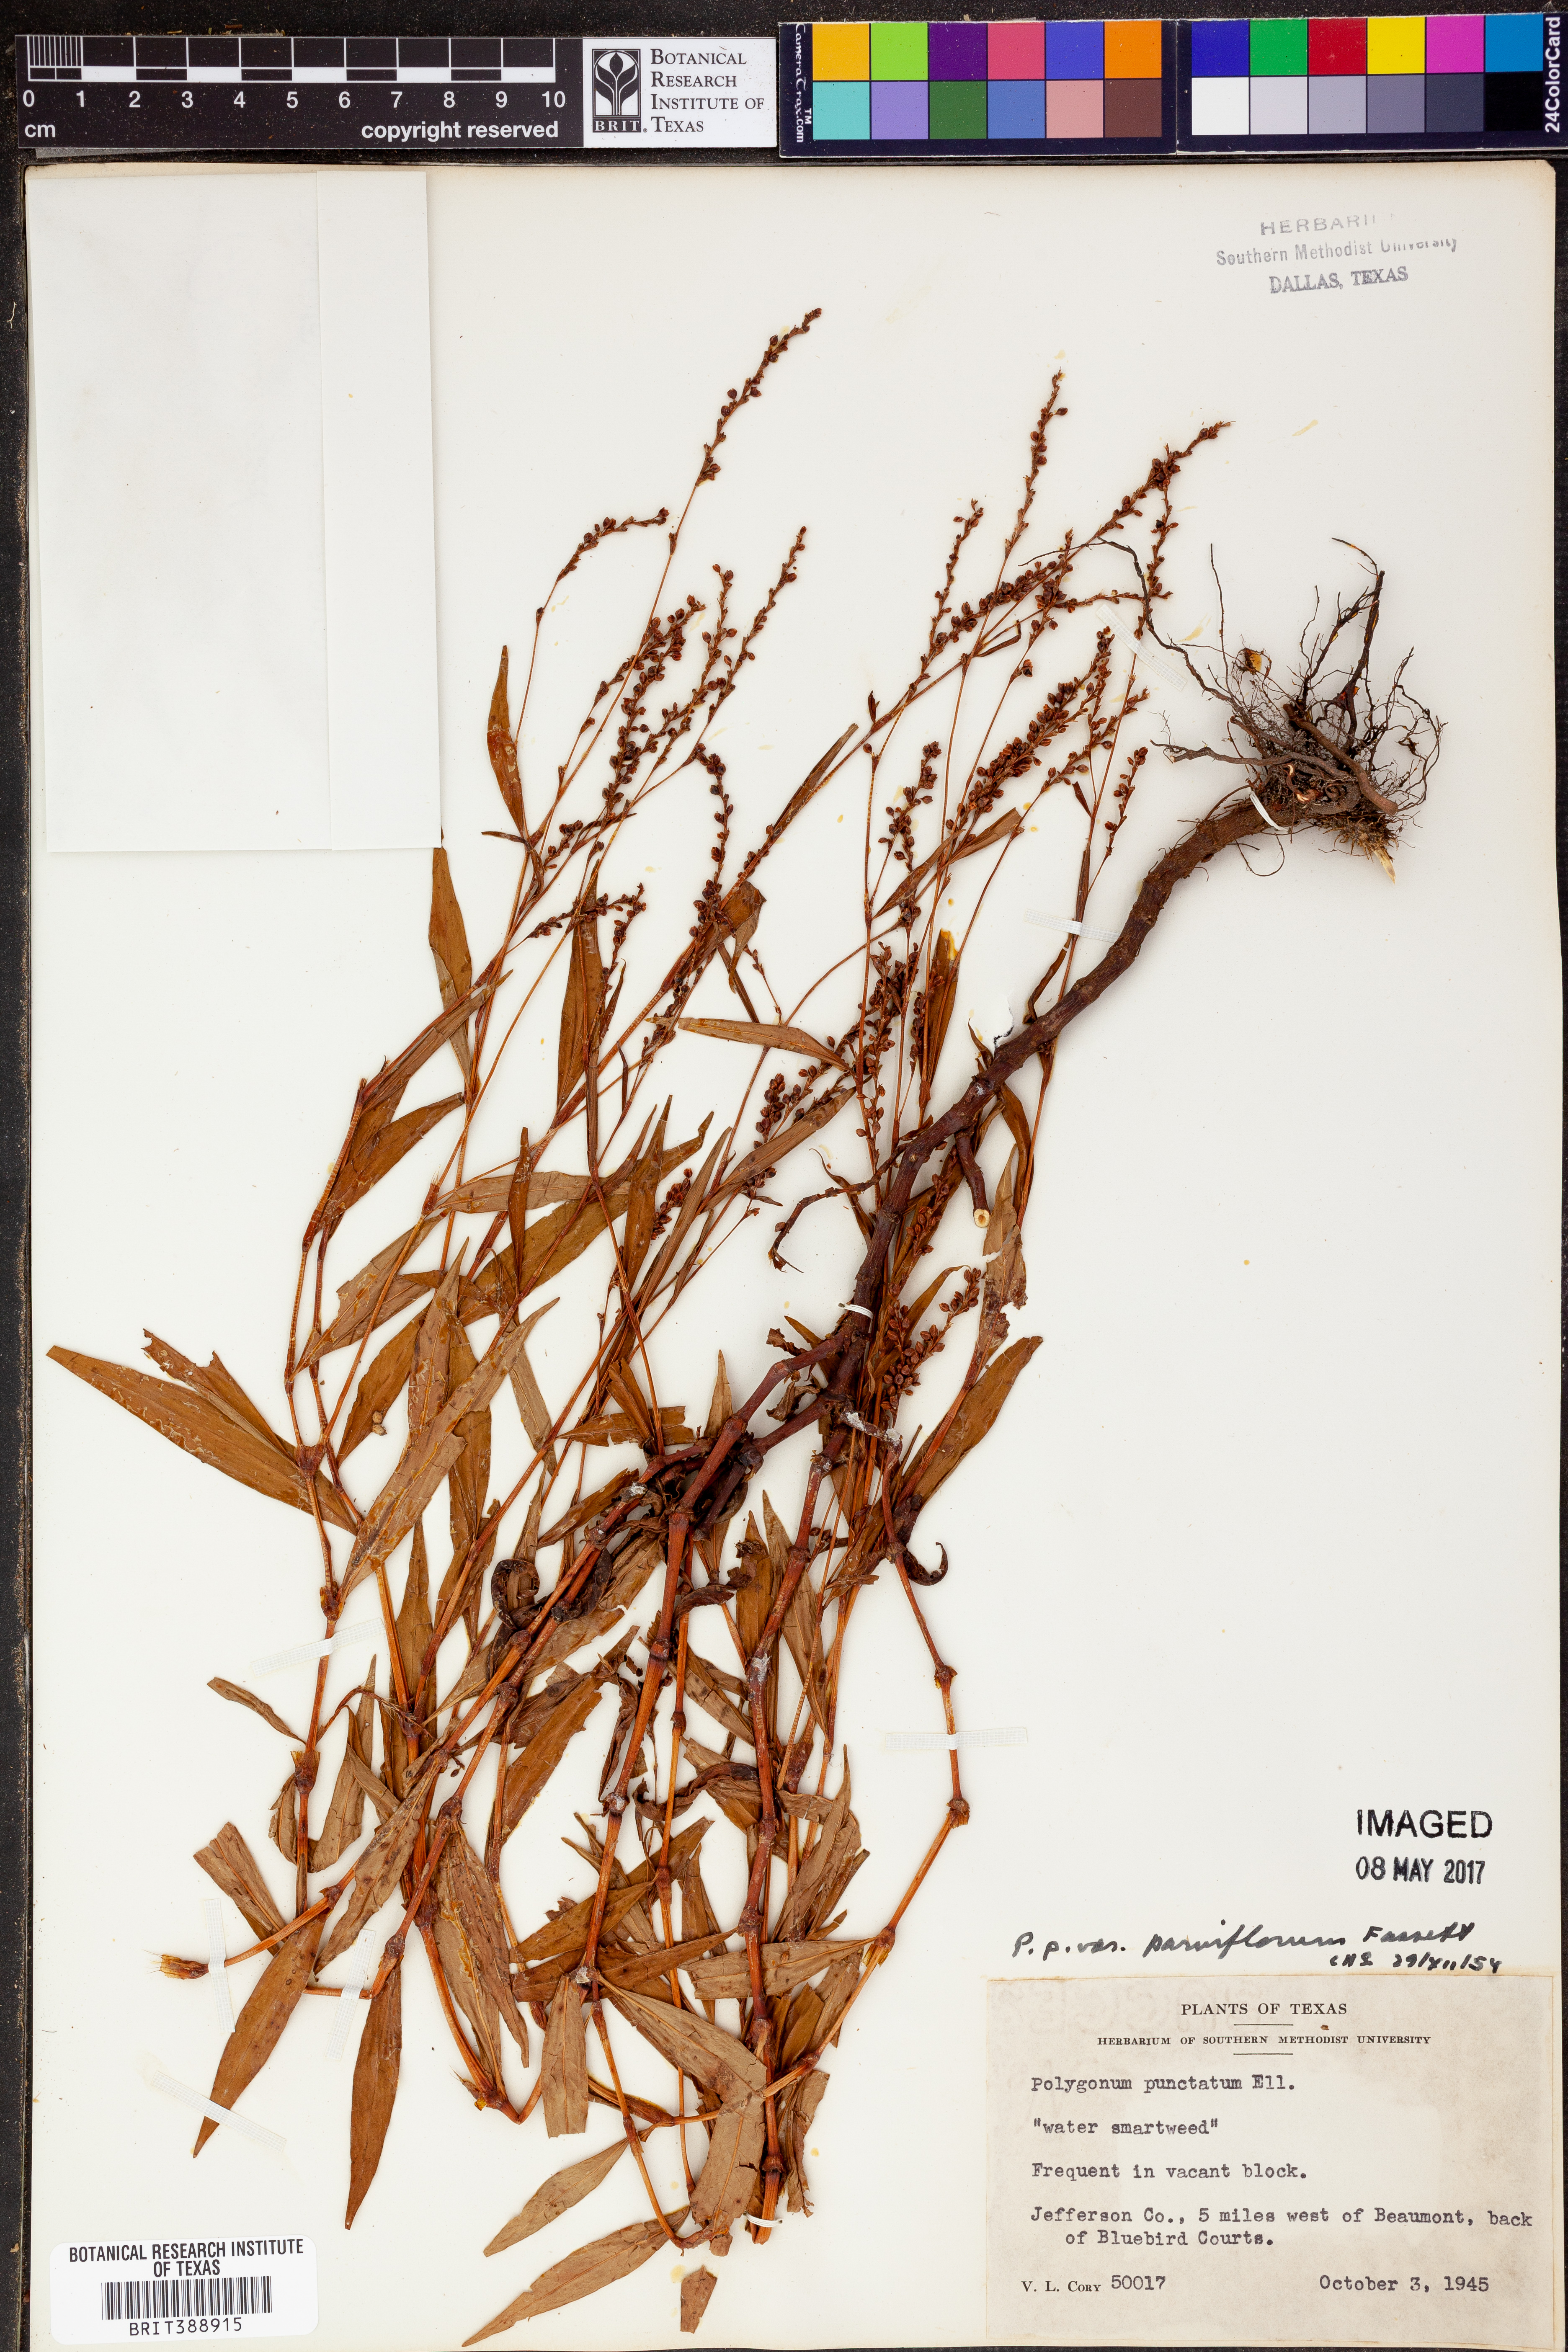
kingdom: Plantae
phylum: Tracheophyta
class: Magnoliopsida
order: Caryophyllales
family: Polygonaceae
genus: Persicaria
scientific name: Persicaria punctata
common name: Dotted smartweed
